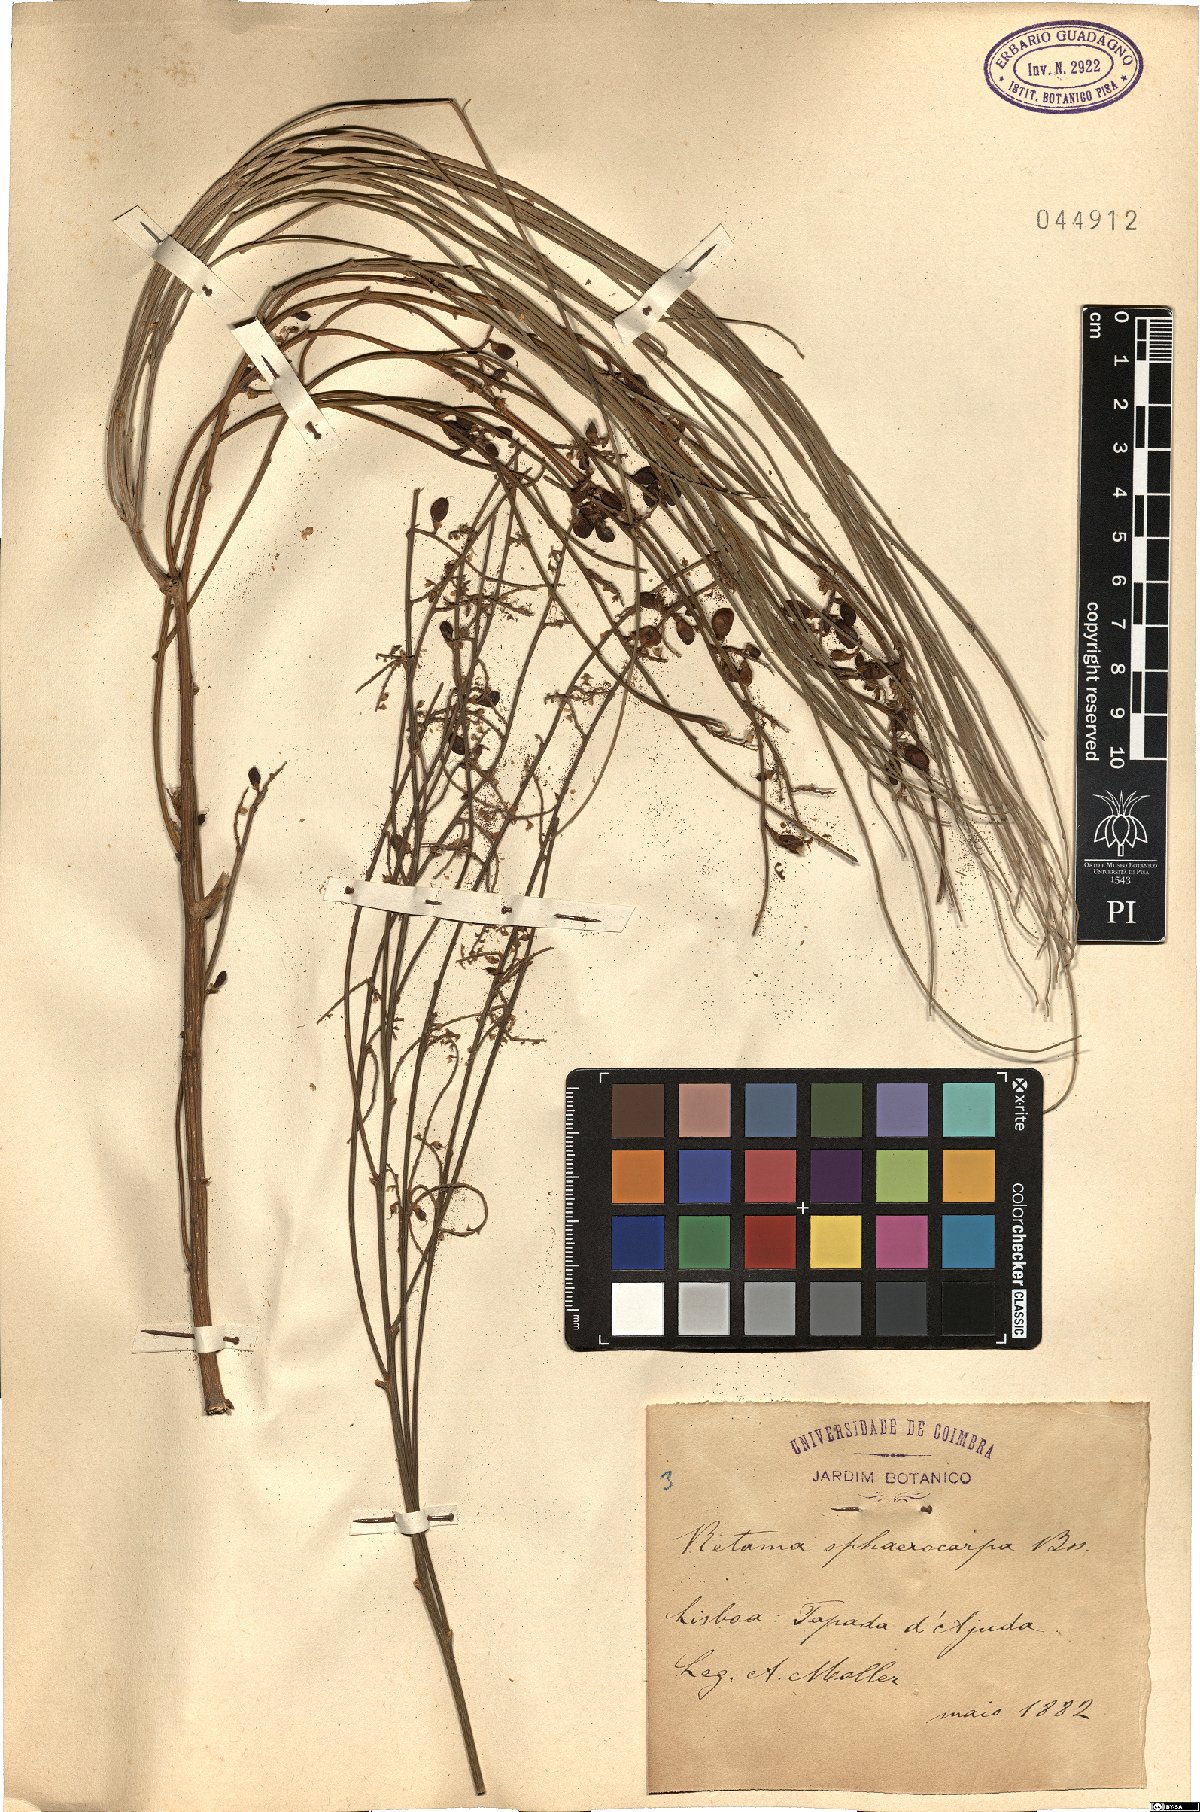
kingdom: Plantae
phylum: Tracheophyta
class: Magnoliopsida
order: Fabales
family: Fabaceae
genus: Retama
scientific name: Retama sphaerocarpa
